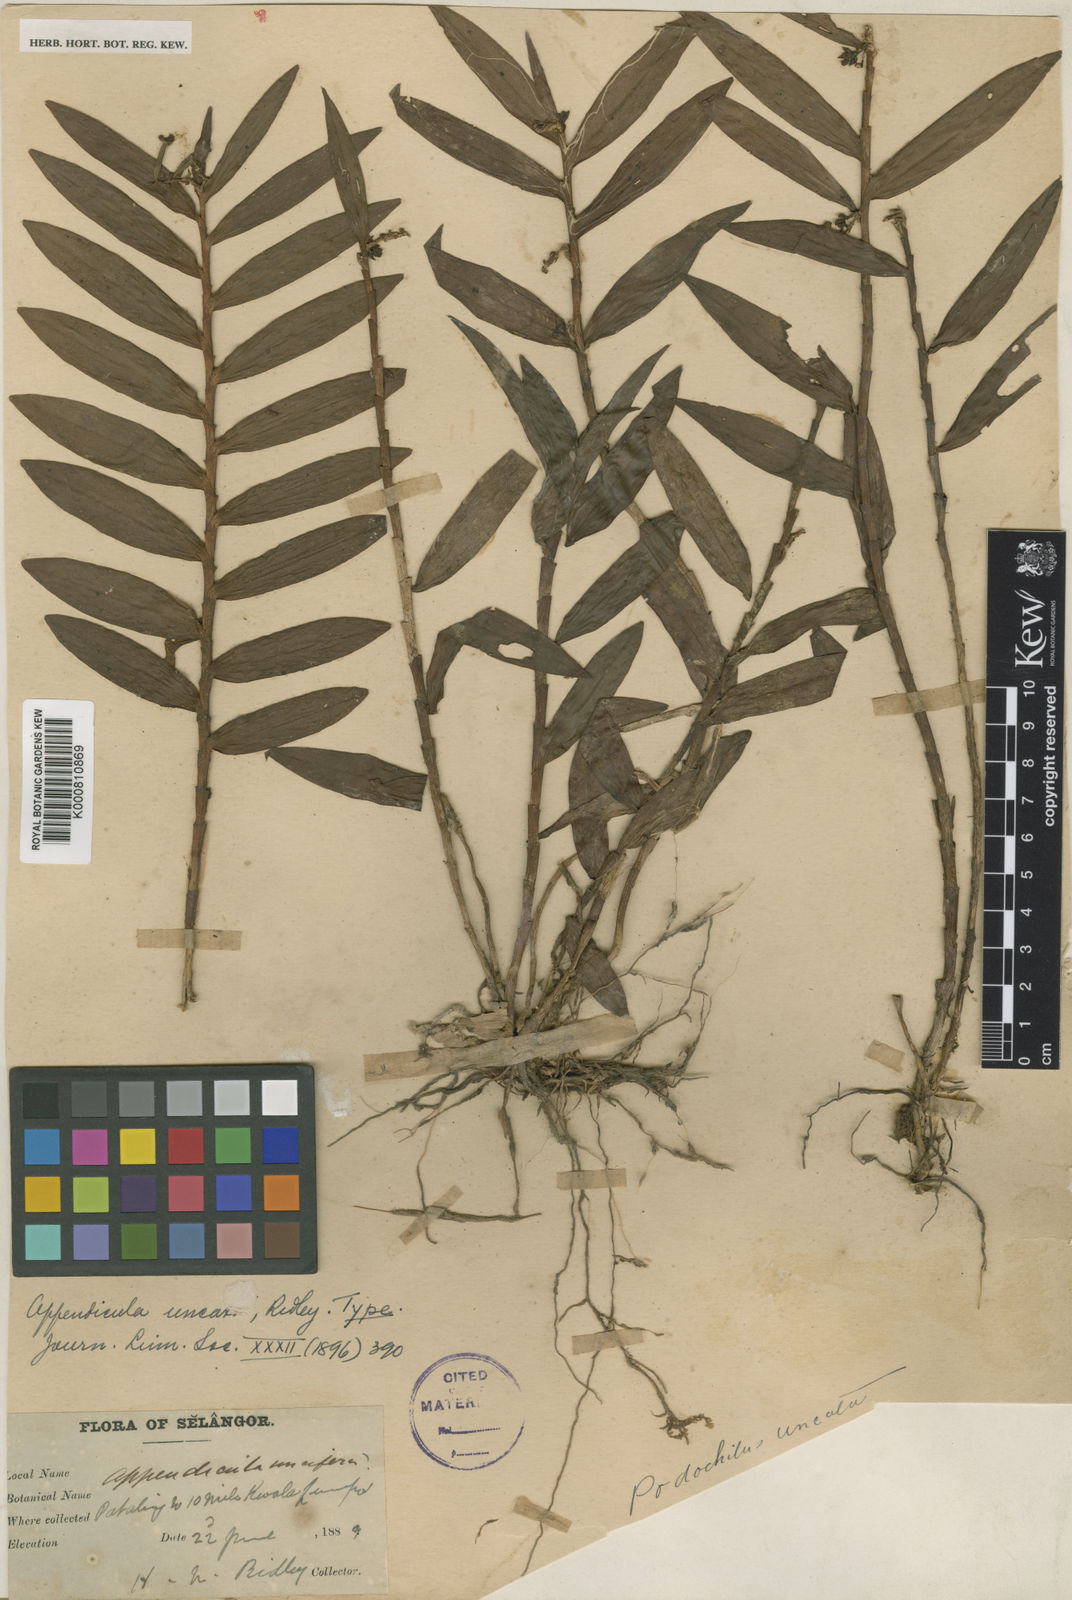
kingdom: Plantae
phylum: Tracheophyta
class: Liliopsida
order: Asparagales
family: Orchidaceae
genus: Appendicula
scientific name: Appendicula uncata
